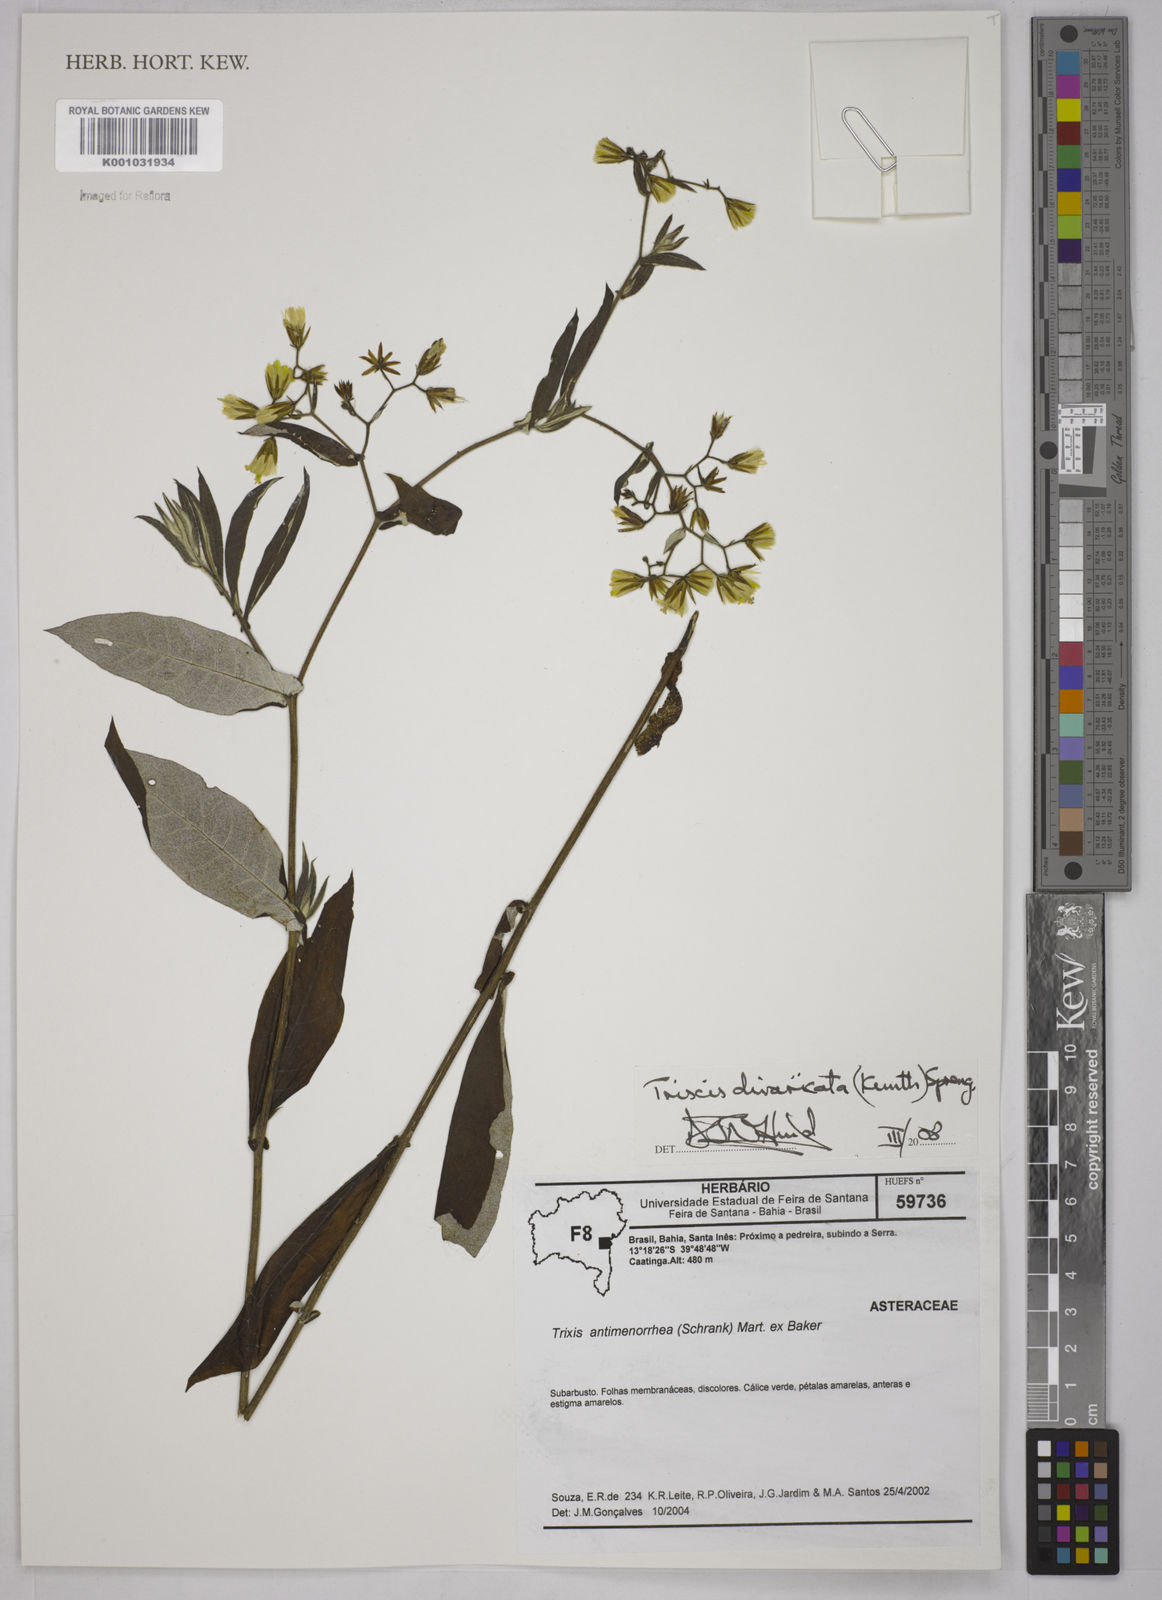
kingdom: Plantae
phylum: Tracheophyta
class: Magnoliopsida
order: Asterales
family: Asteraceae
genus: Trixis
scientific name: Trixis divaricata
